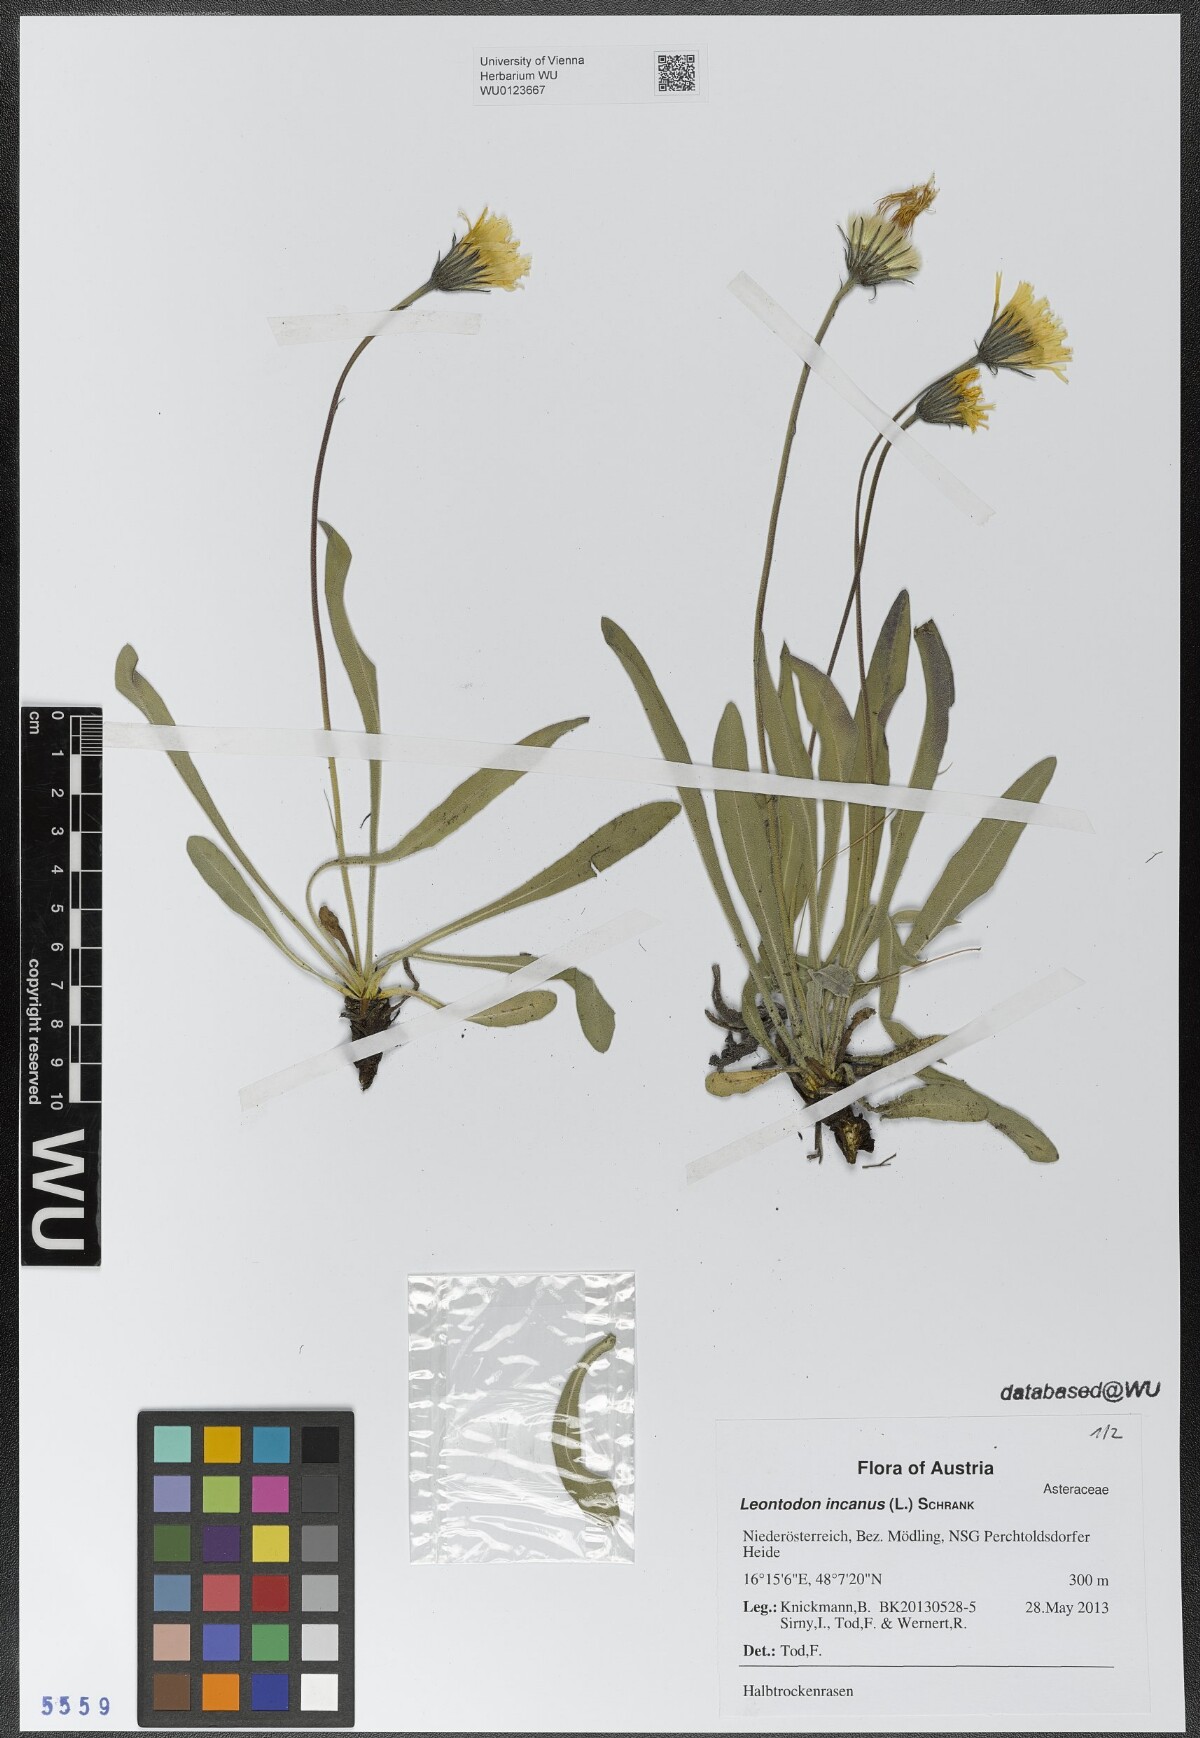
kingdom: Plantae
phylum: Tracheophyta
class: Magnoliopsida
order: Asterales
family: Asteraceae
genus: Leontodon
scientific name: Leontodon incanus
